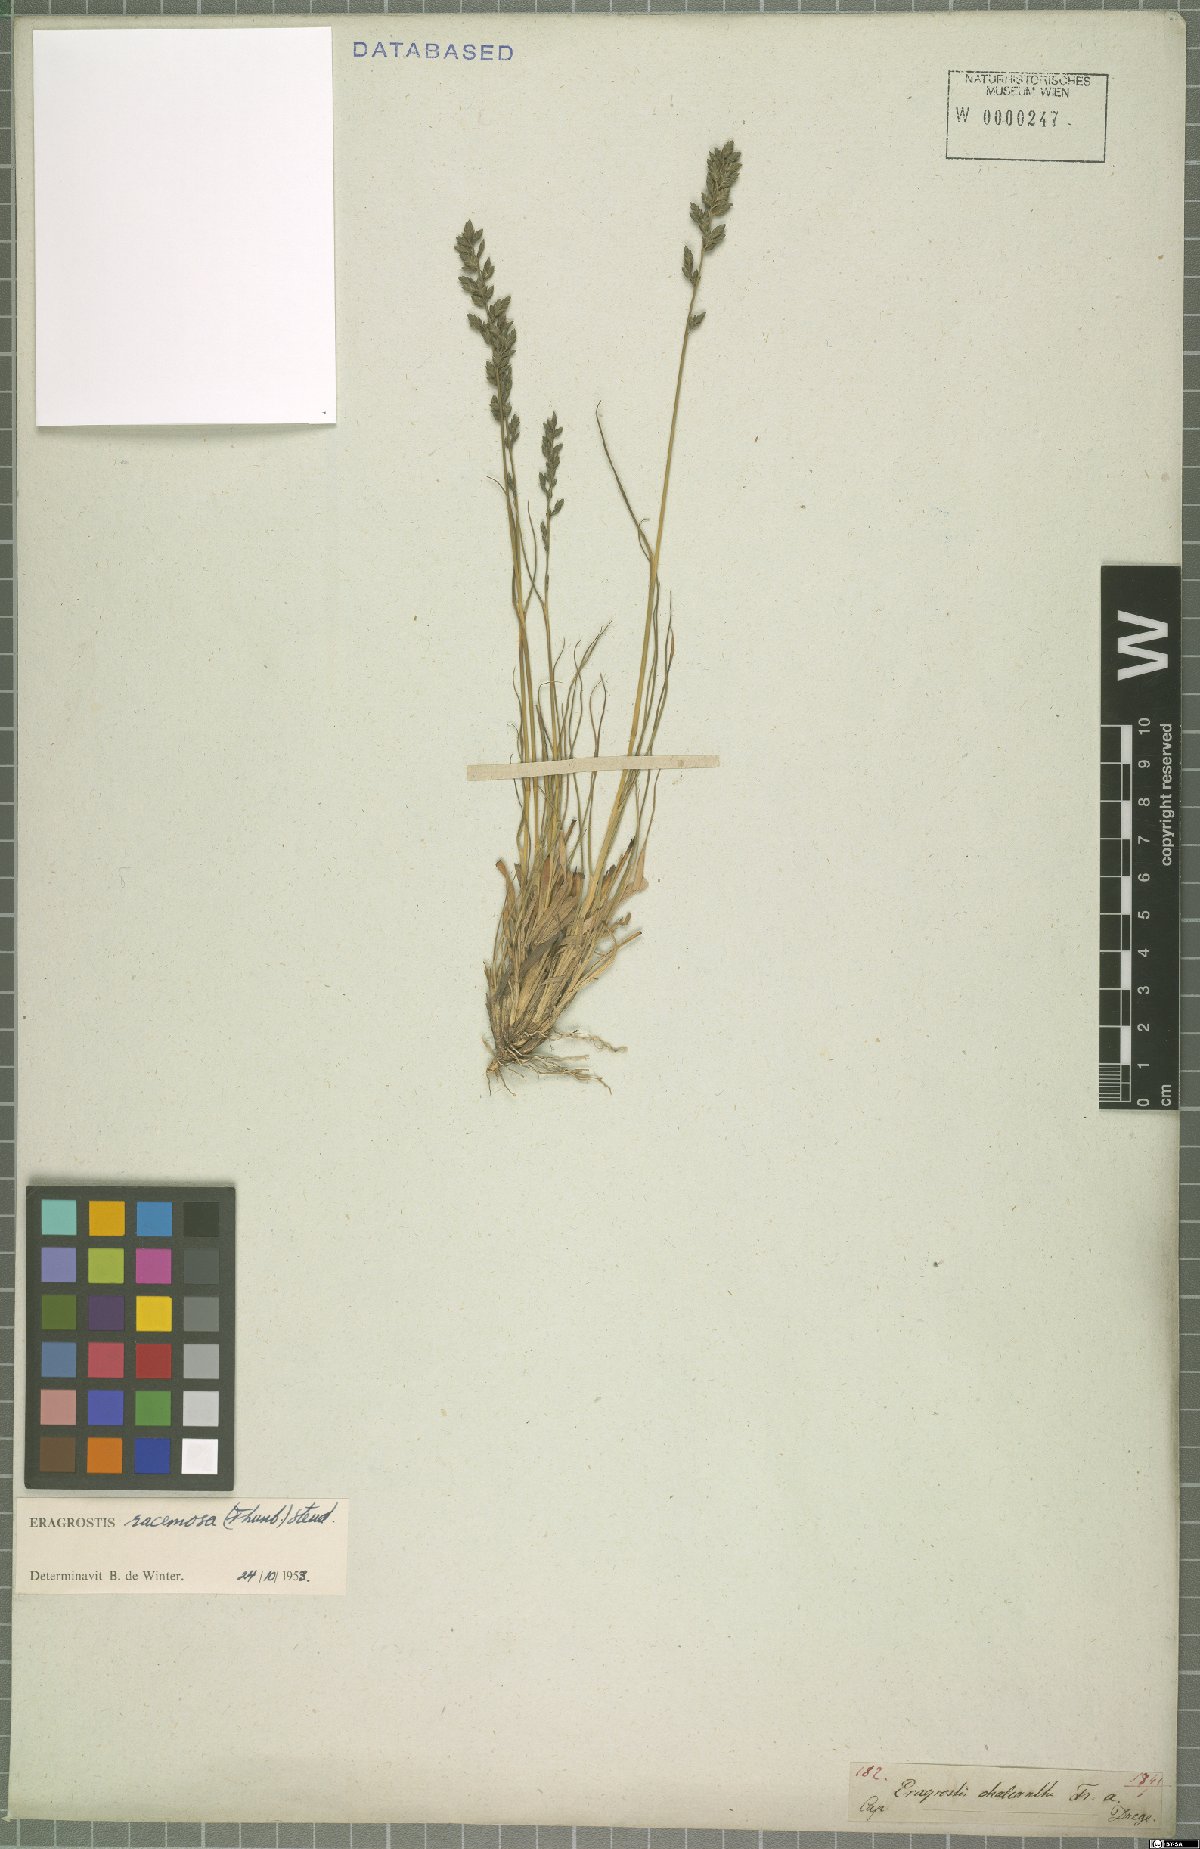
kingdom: Plantae
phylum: Tracheophyta
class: Liliopsida
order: Poales
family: Poaceae
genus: Eragrostis
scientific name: Eragrostis racemosa
